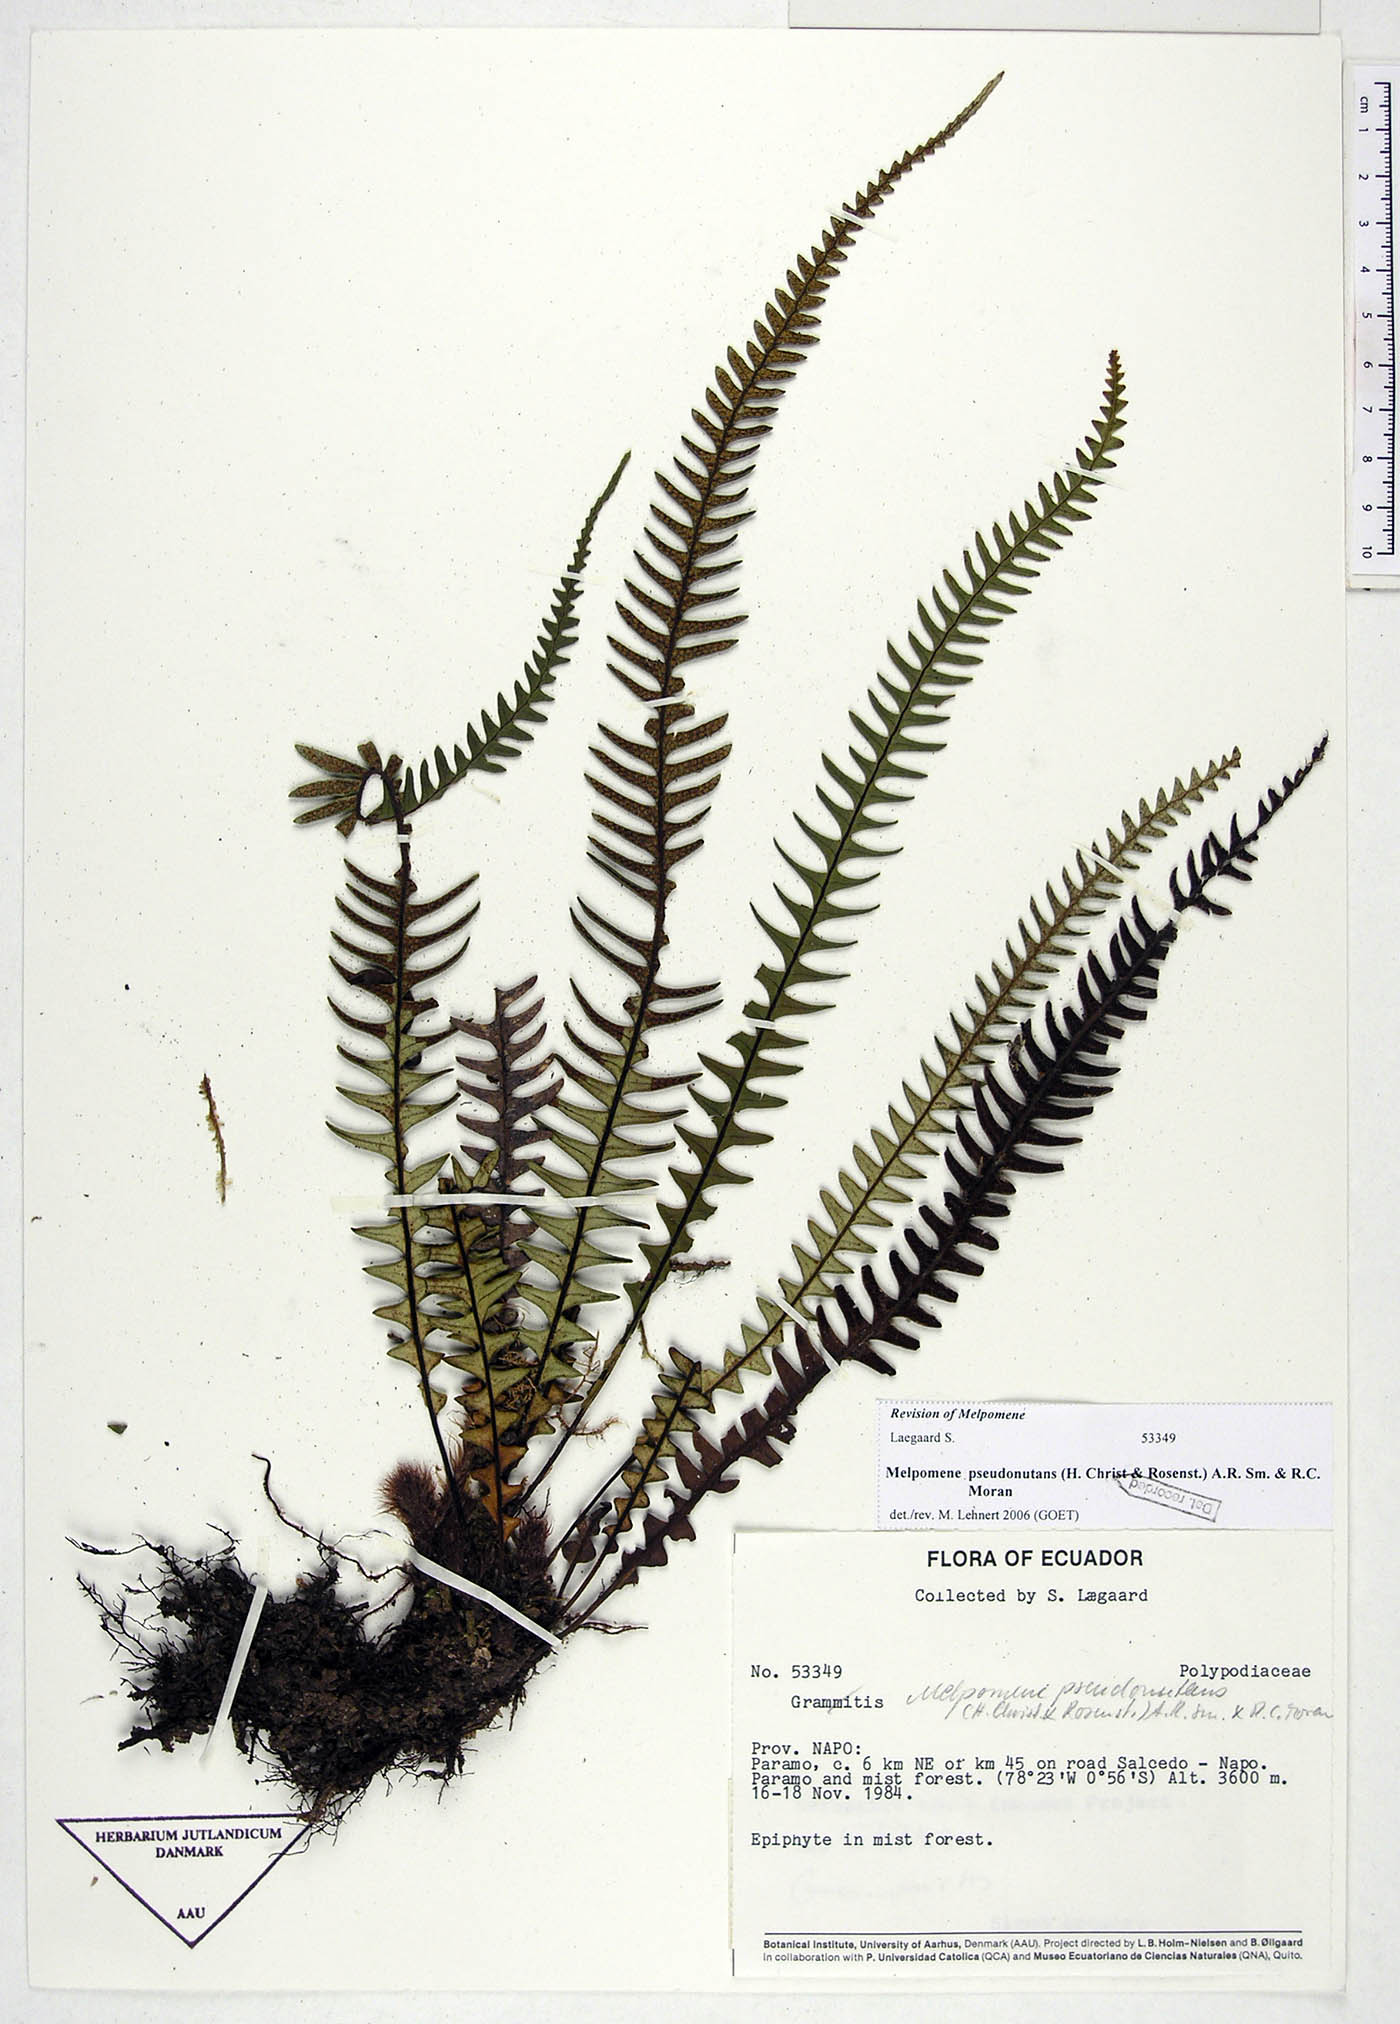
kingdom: Plantae
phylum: Tracheophyta
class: Polypodiopsida
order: Polypodiales
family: Polypodiaceae
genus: Melpomene
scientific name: Melpomene pseudonutans
